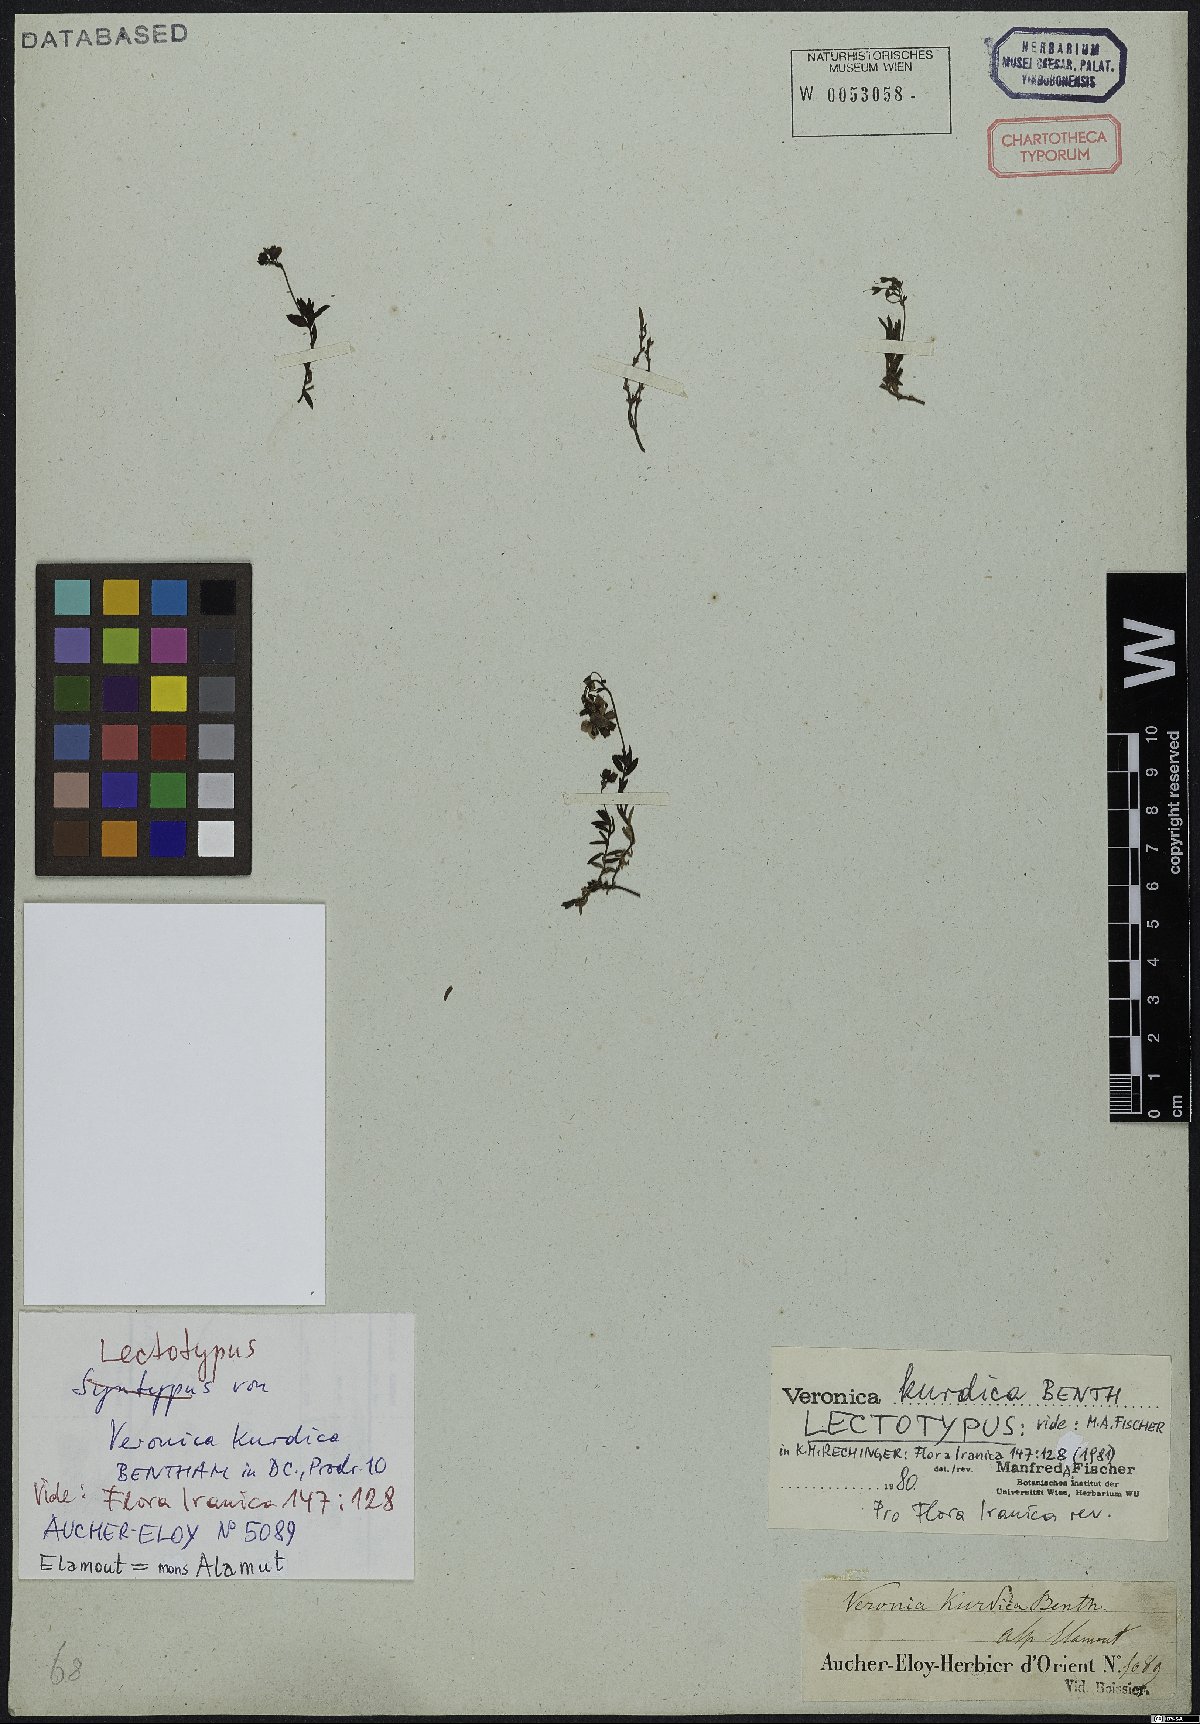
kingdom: Plantae
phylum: Tracheophyta
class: Magnoliopsida
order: Lamiales
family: Plantaginaceae
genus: Veronica
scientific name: Veronica kurdica
